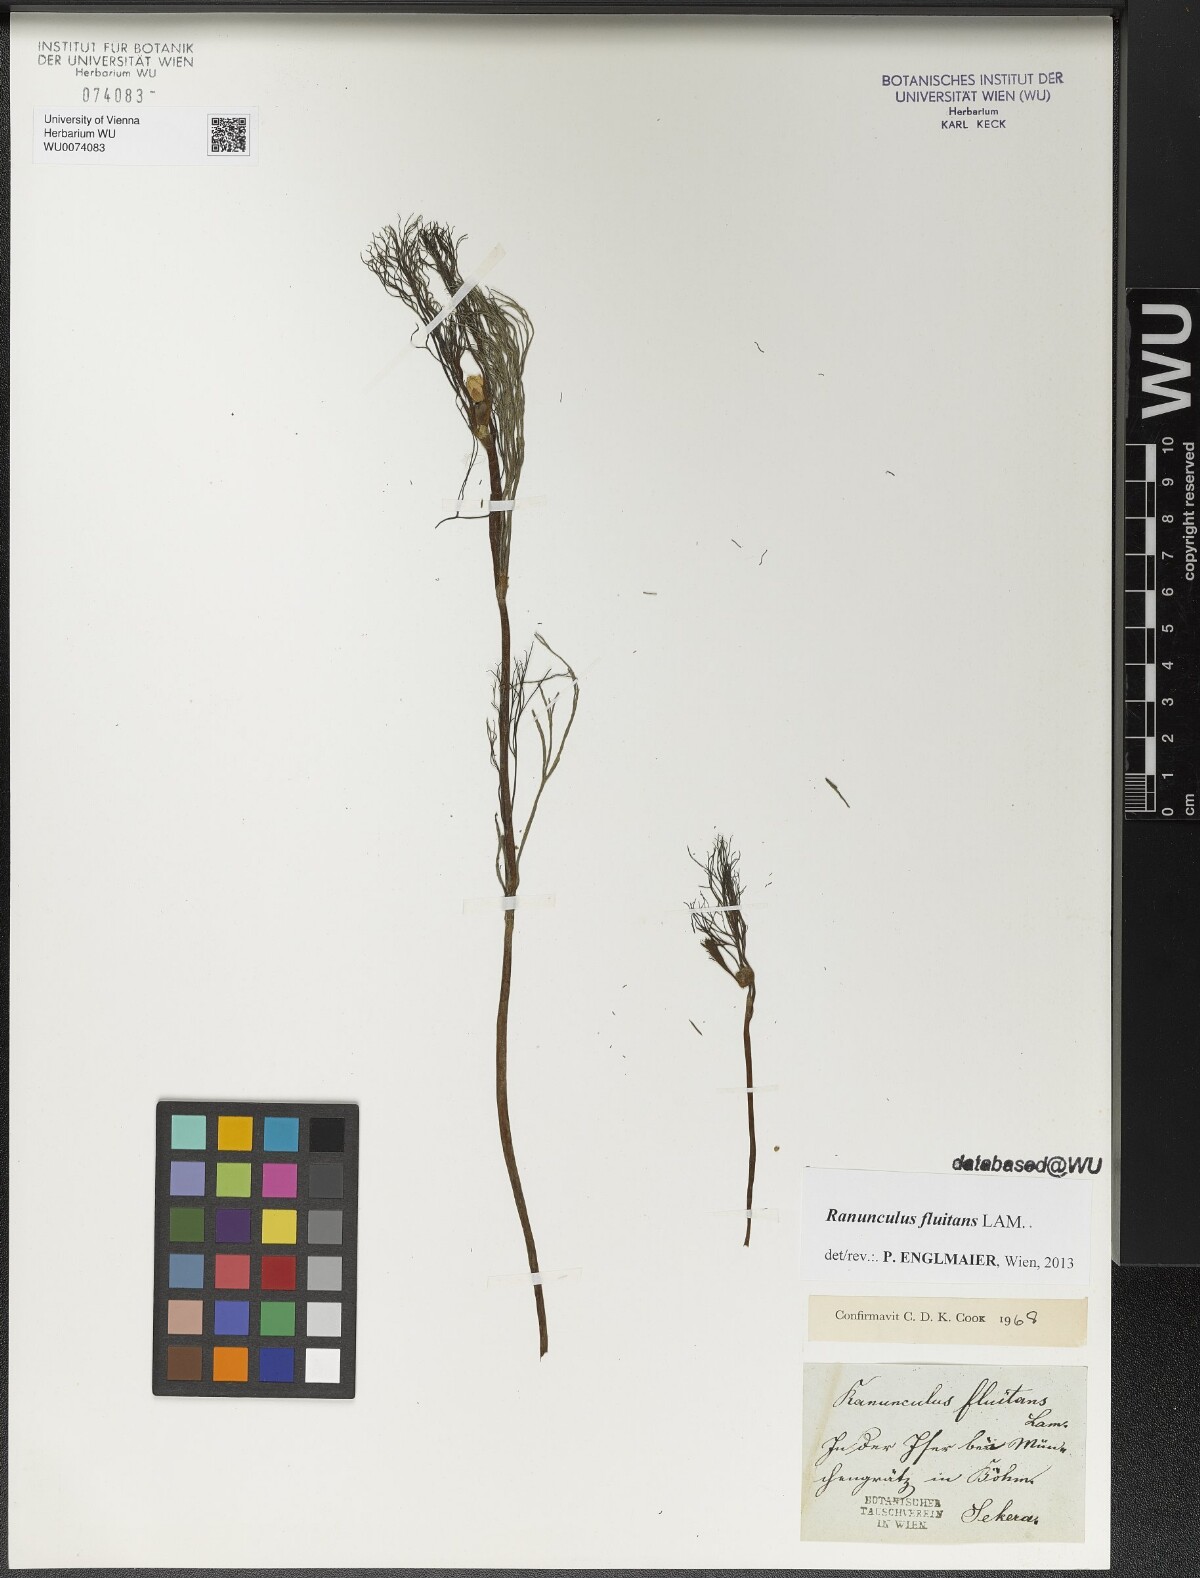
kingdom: Plantae
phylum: Tracheophyta
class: Magnoliopsida
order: Ranunculales
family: Ranunculaceae
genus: Ranunculus
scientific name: Ranunculus fluitans
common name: River water-crowfoot
